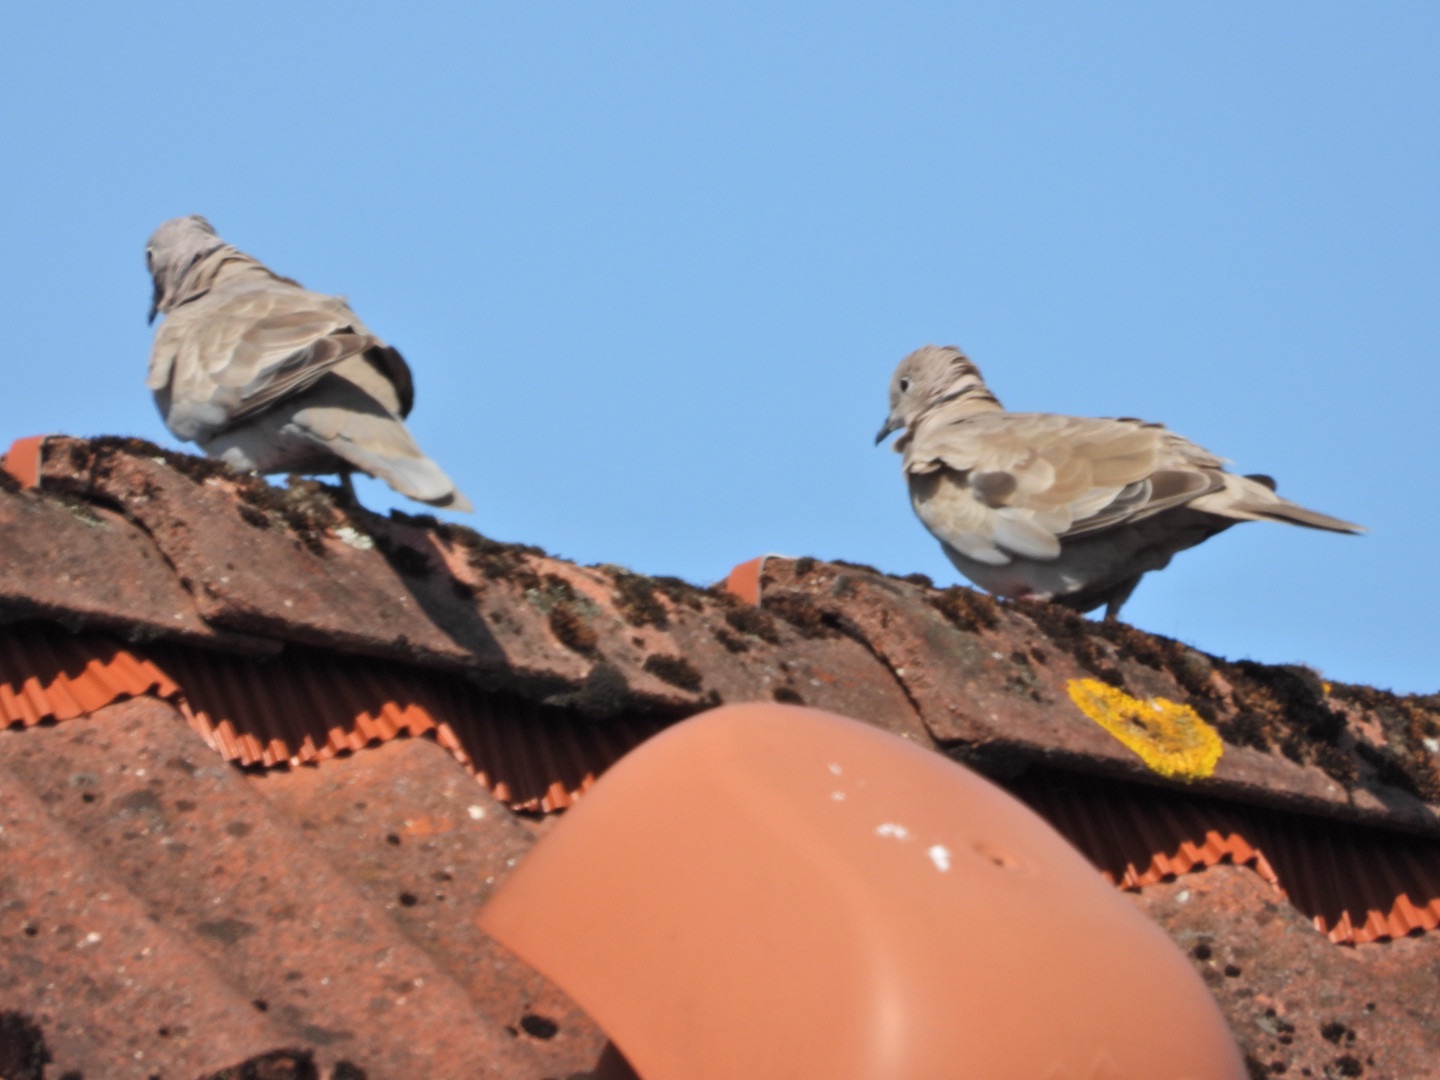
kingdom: Animalia
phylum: Chordata
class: Aves
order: Columbiformes
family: Columbidae
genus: Streptopelia
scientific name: Streptopelia decaocto
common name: Tyrkerdue
